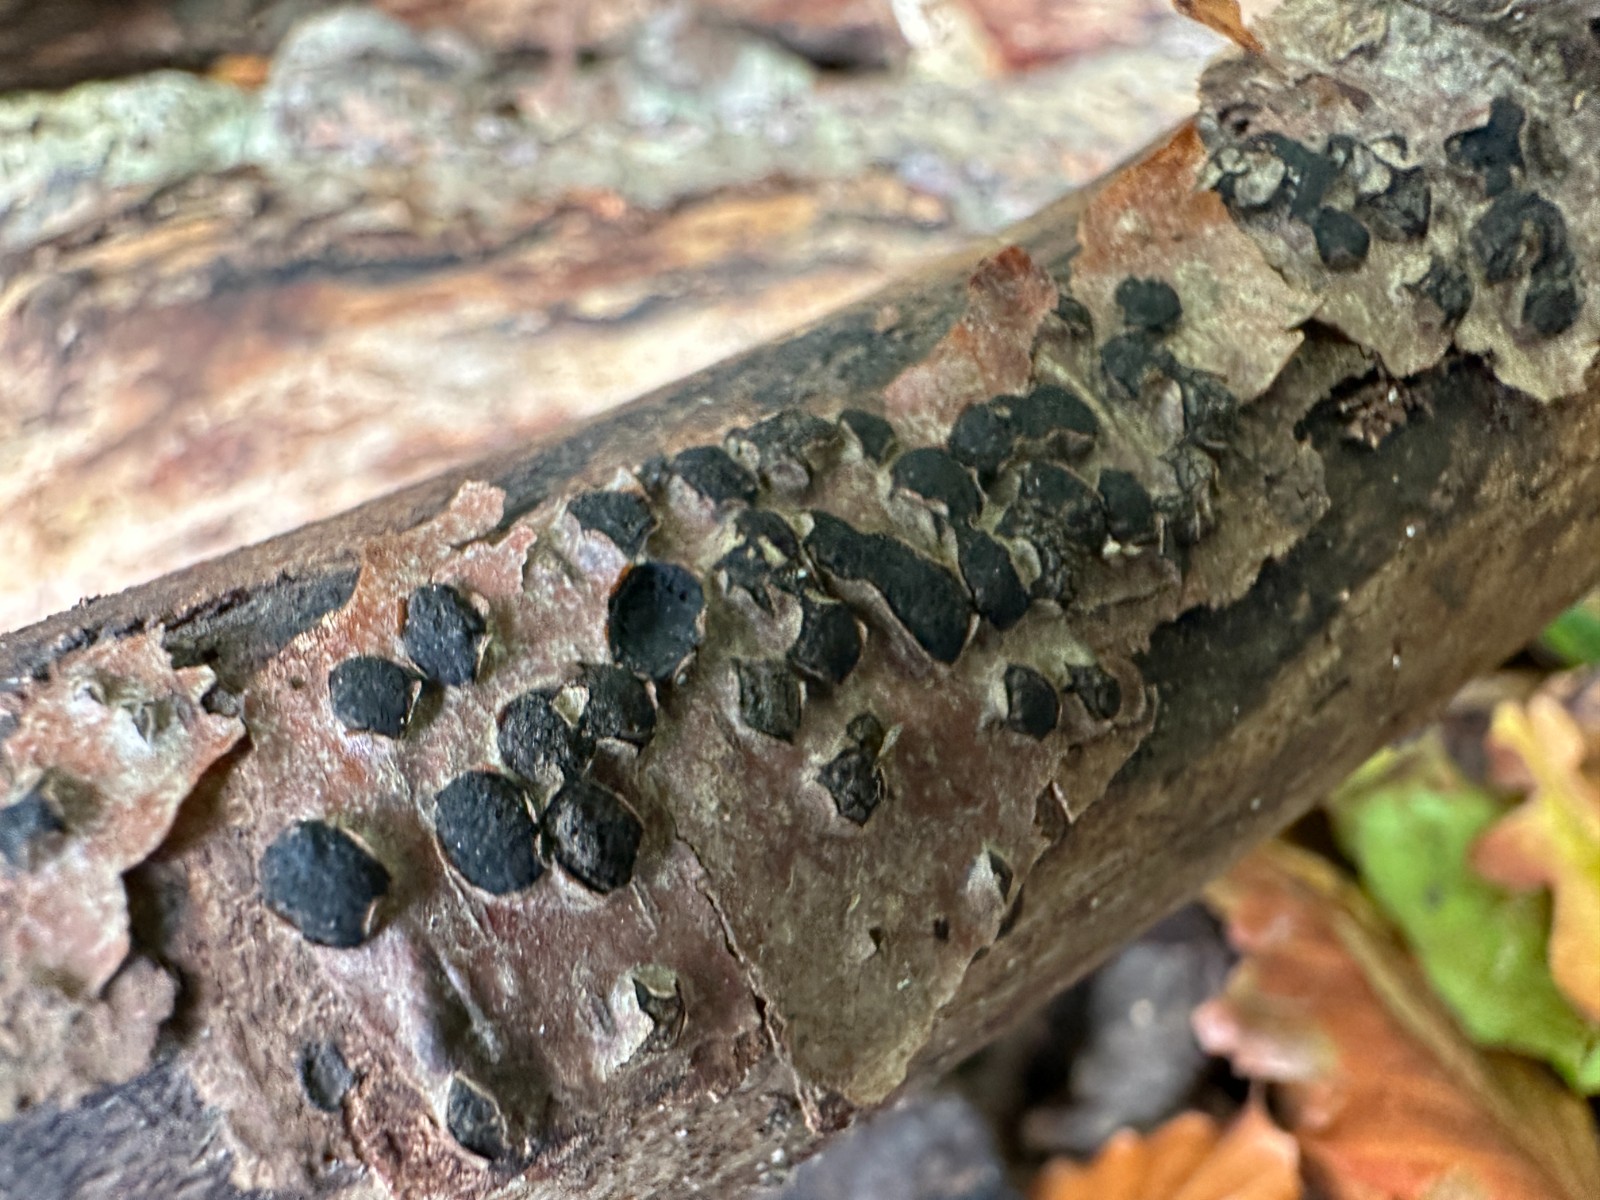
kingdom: Fungi
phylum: Ascomycota
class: Sordariomycetes
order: Xylariales
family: Diatrypaceae
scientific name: Diatrypaceae
